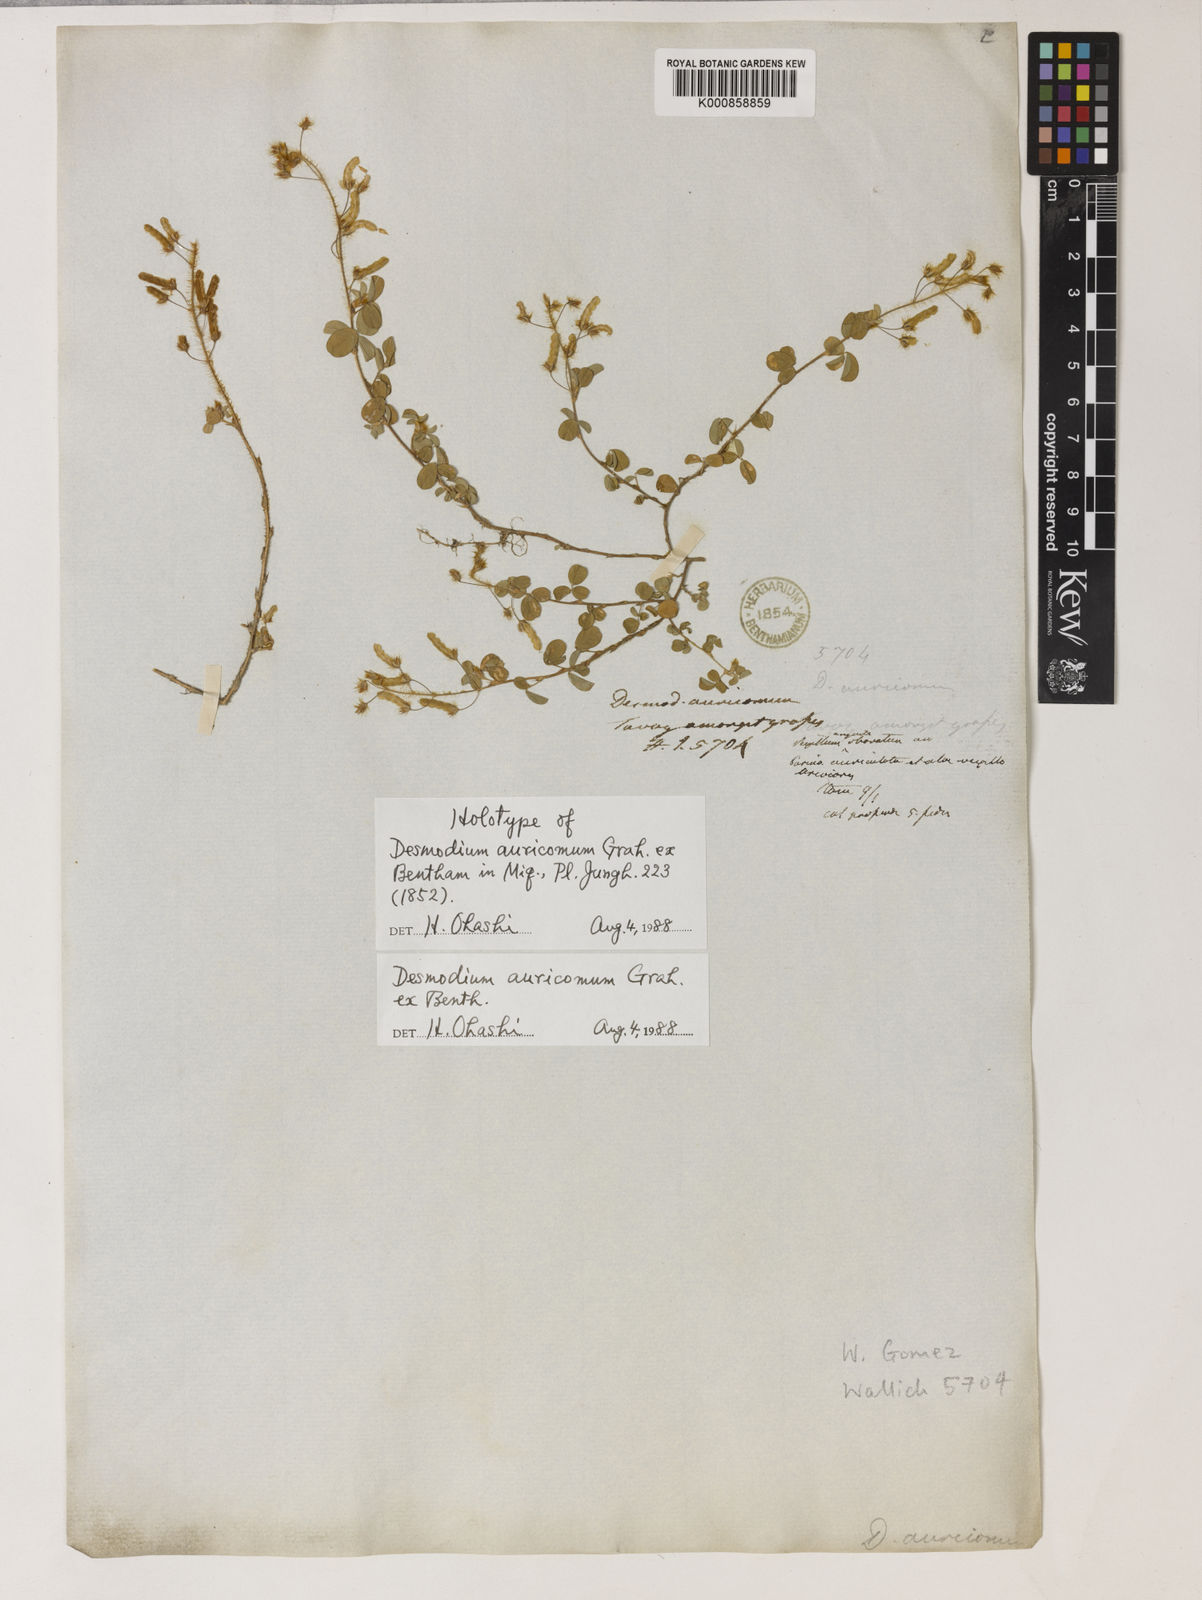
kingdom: Plantae
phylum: Tracheophyta
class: Magnoliopsida
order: Fabales
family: Fabaceae
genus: Grona
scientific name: Grona auricoma
